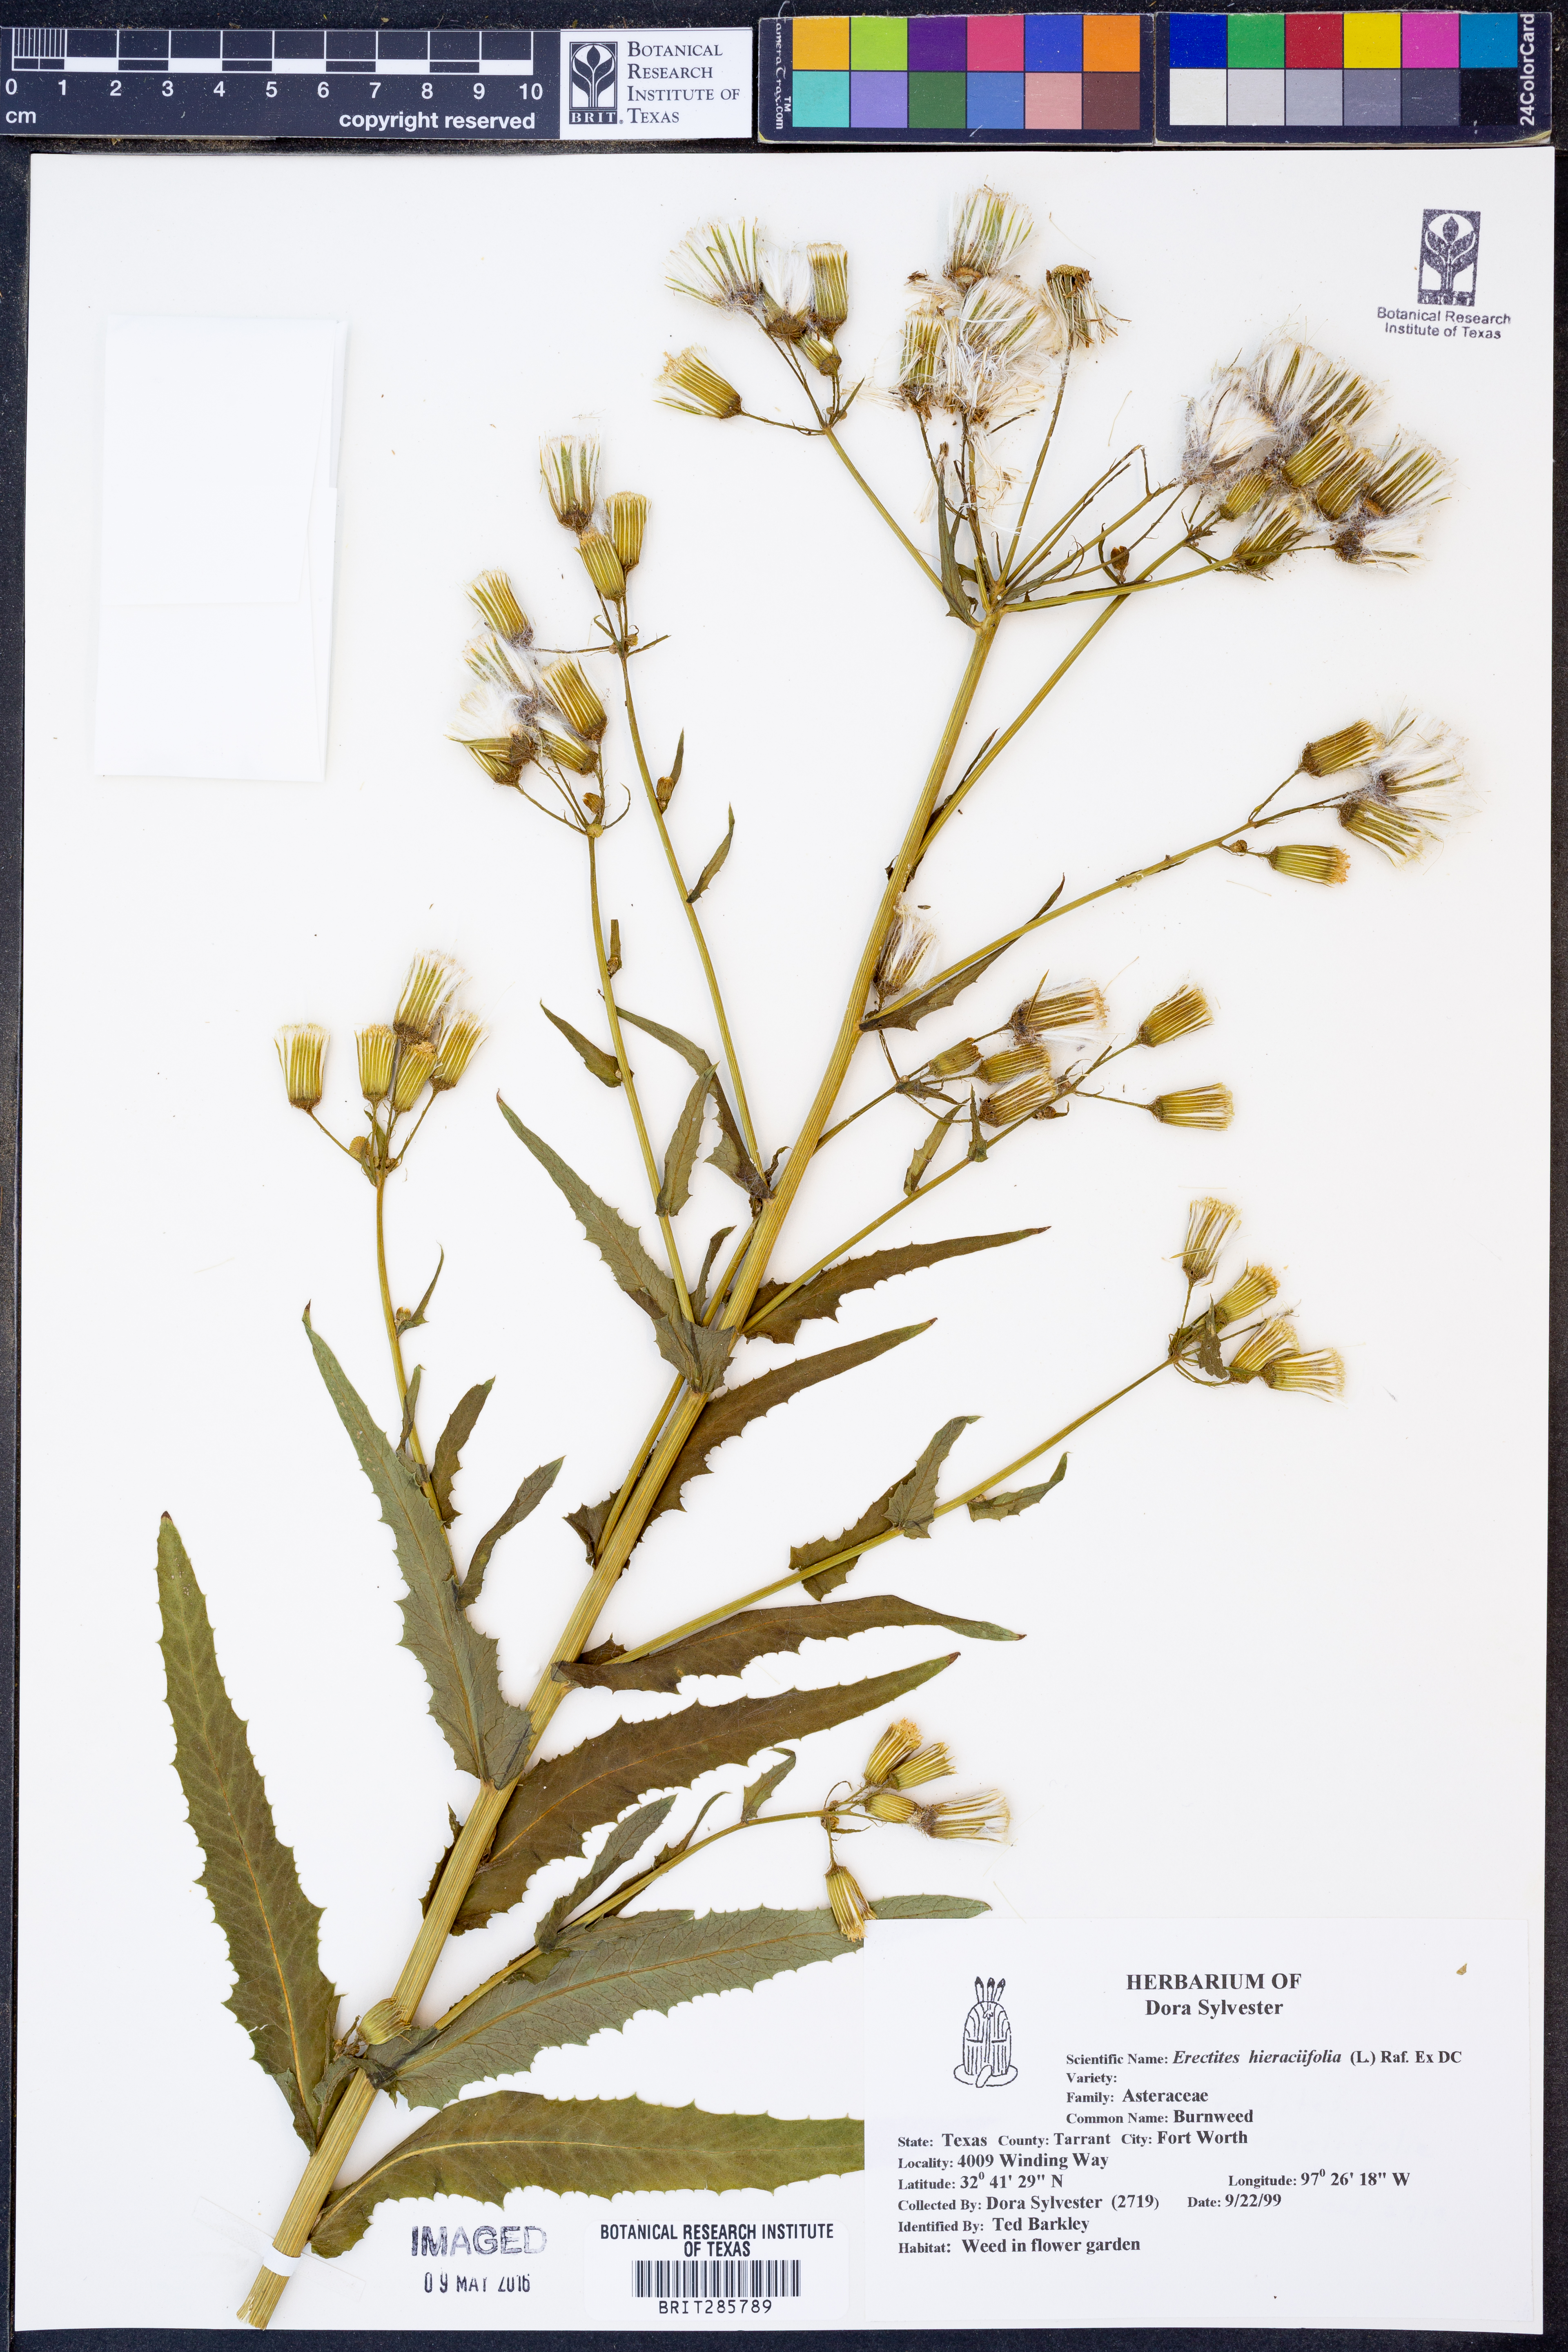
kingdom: Plantae
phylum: Tracheophyta
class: Magnoliopsida
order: Asterales
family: Asteraceae
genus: Erechtites
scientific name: Erechtites hieraciifolius
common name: American burnweed
